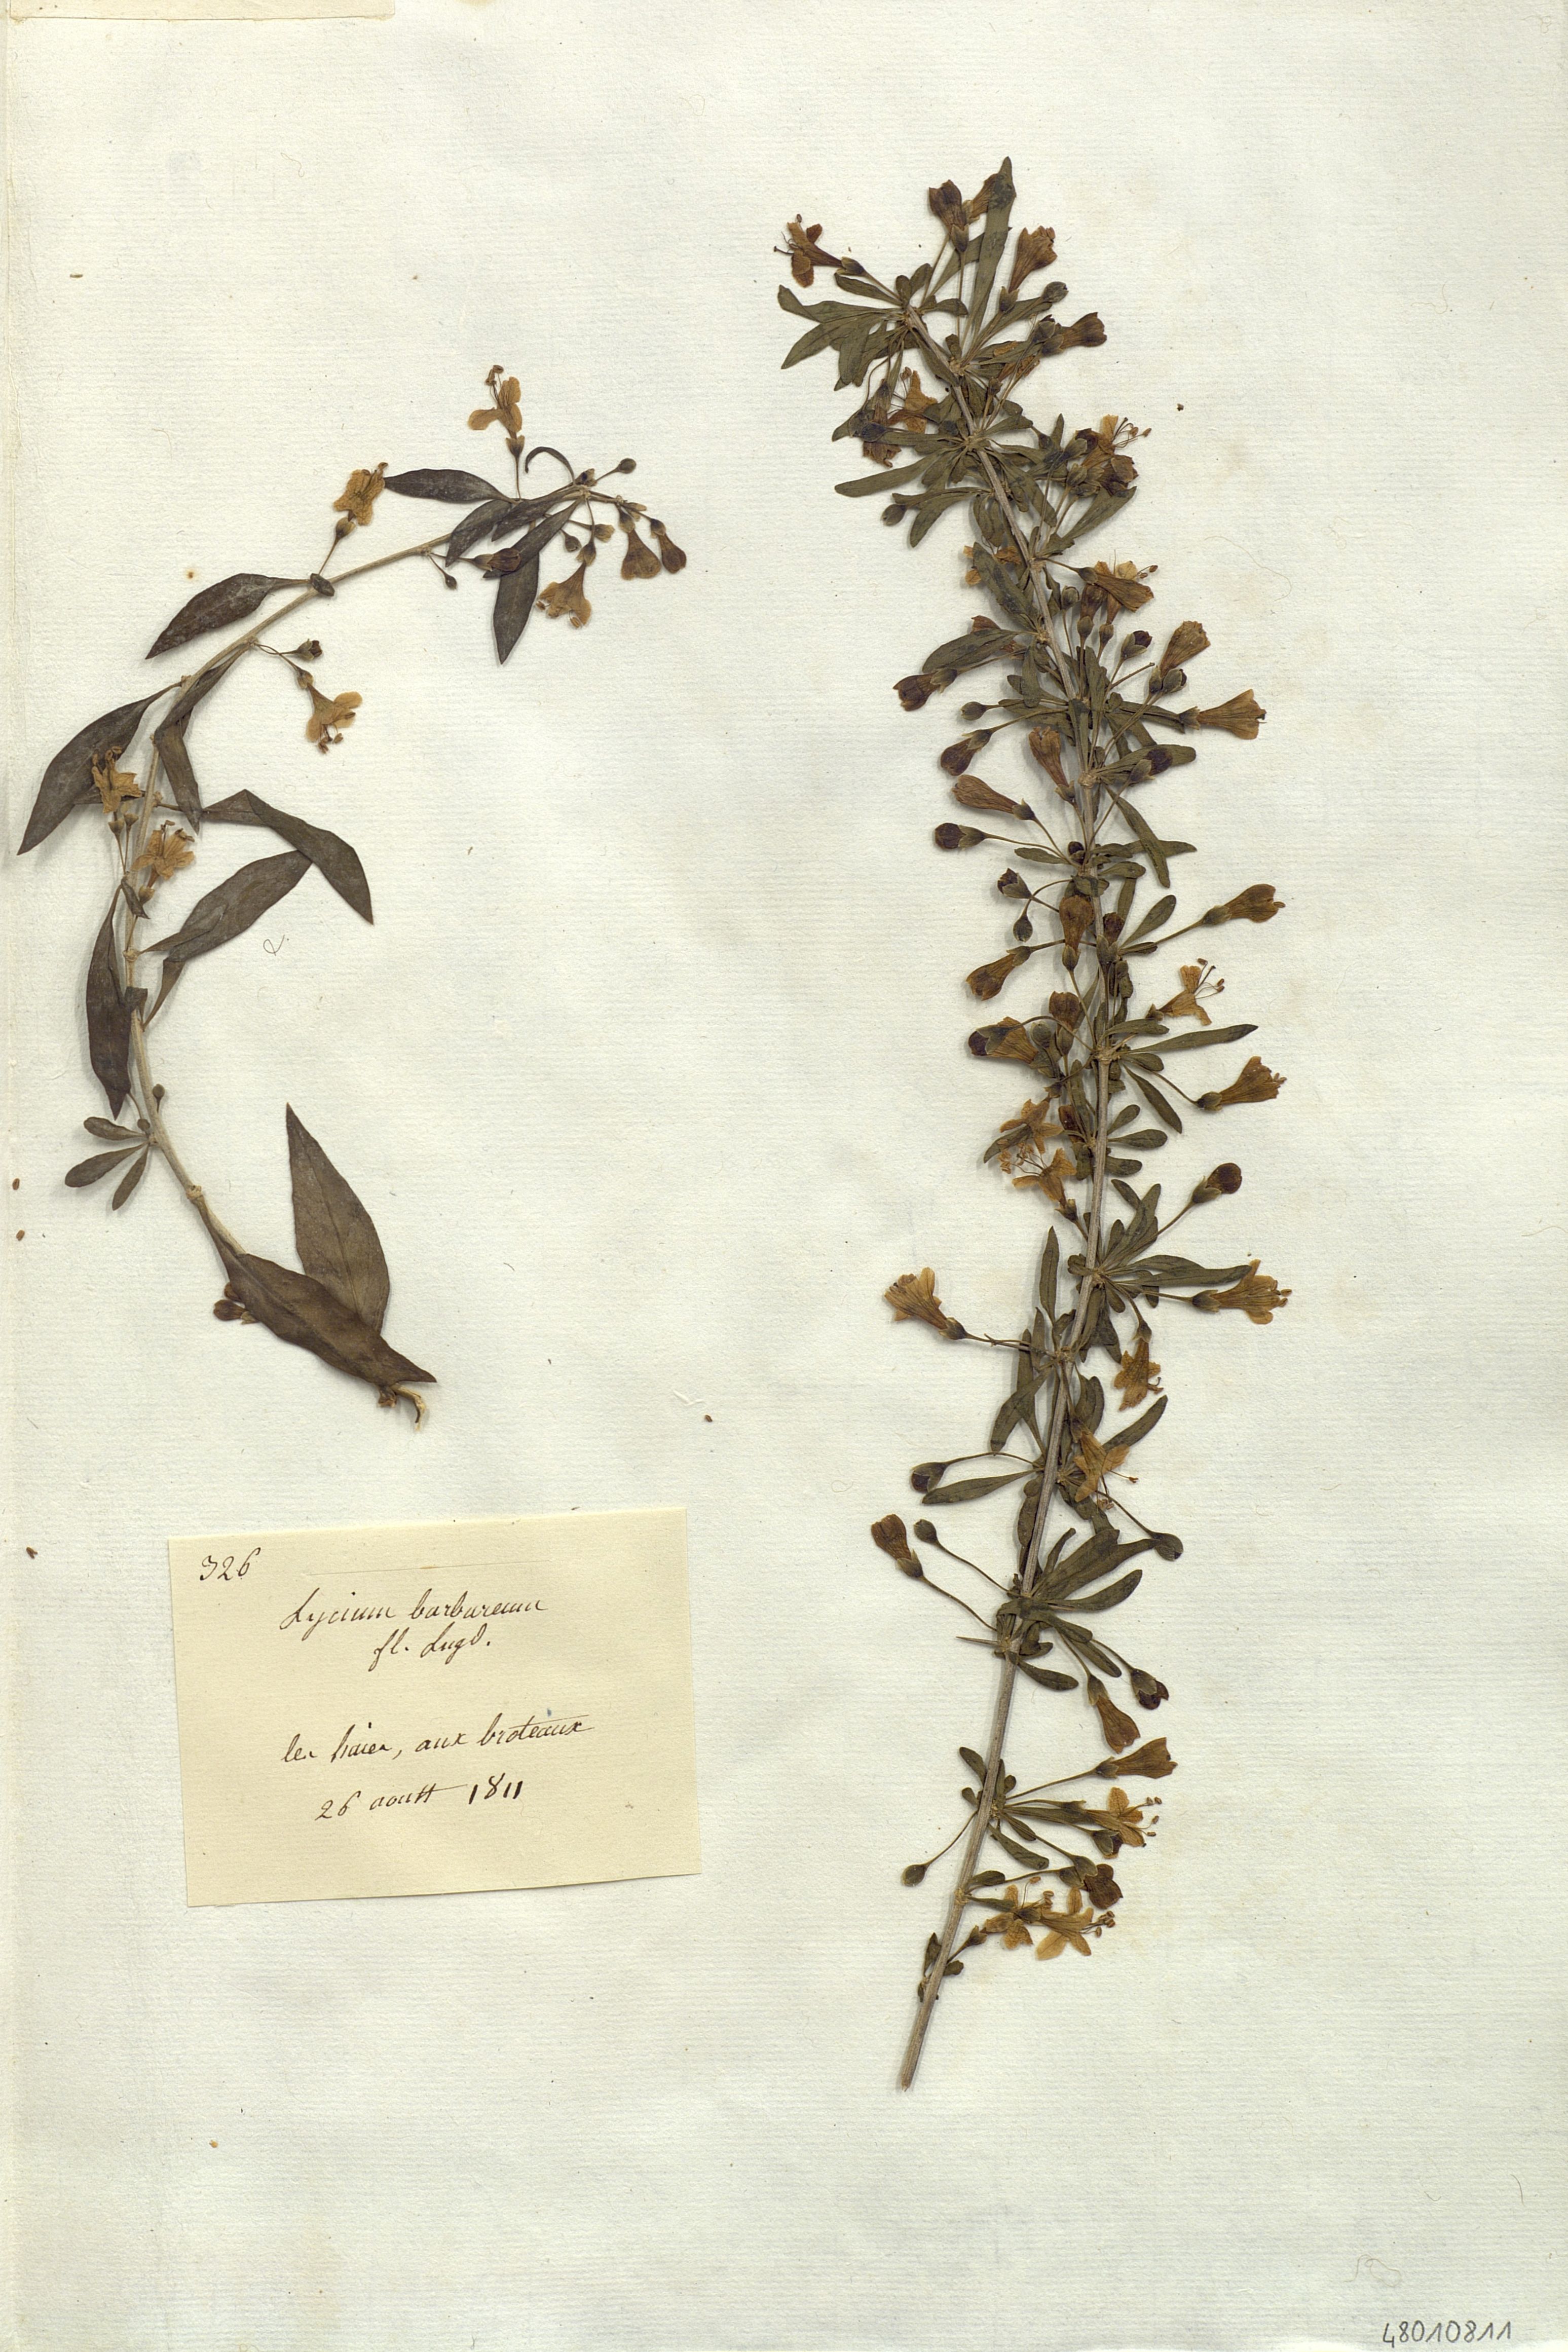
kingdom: Plantae
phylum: Tracheophyta
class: Magnoliopsida
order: Solanales
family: Solanaceae
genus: Lycium
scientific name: Lycium barbarum
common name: Duke of argyll's teaplant
